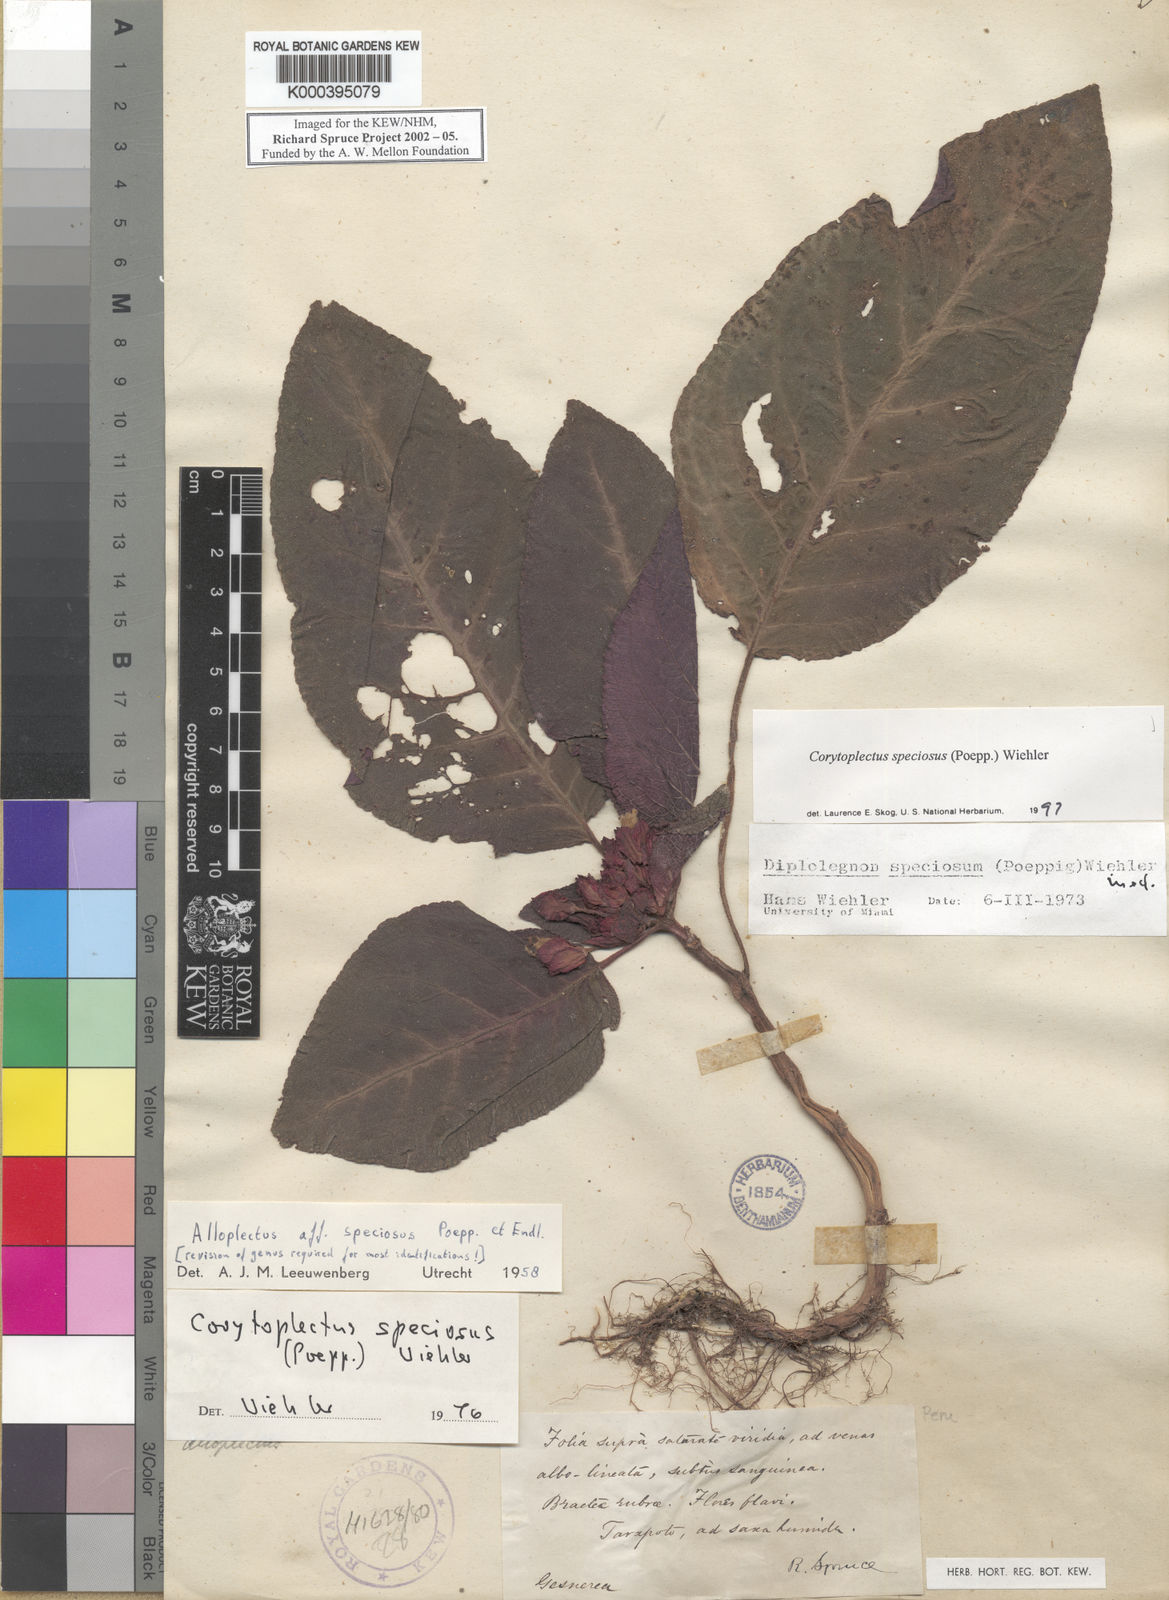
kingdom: Plantae
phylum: Tracheophyta
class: Magnoliopsida
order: Lamiales
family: Gesneriaceae
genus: Corytoplectus
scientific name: Corytoplectus speciosus
